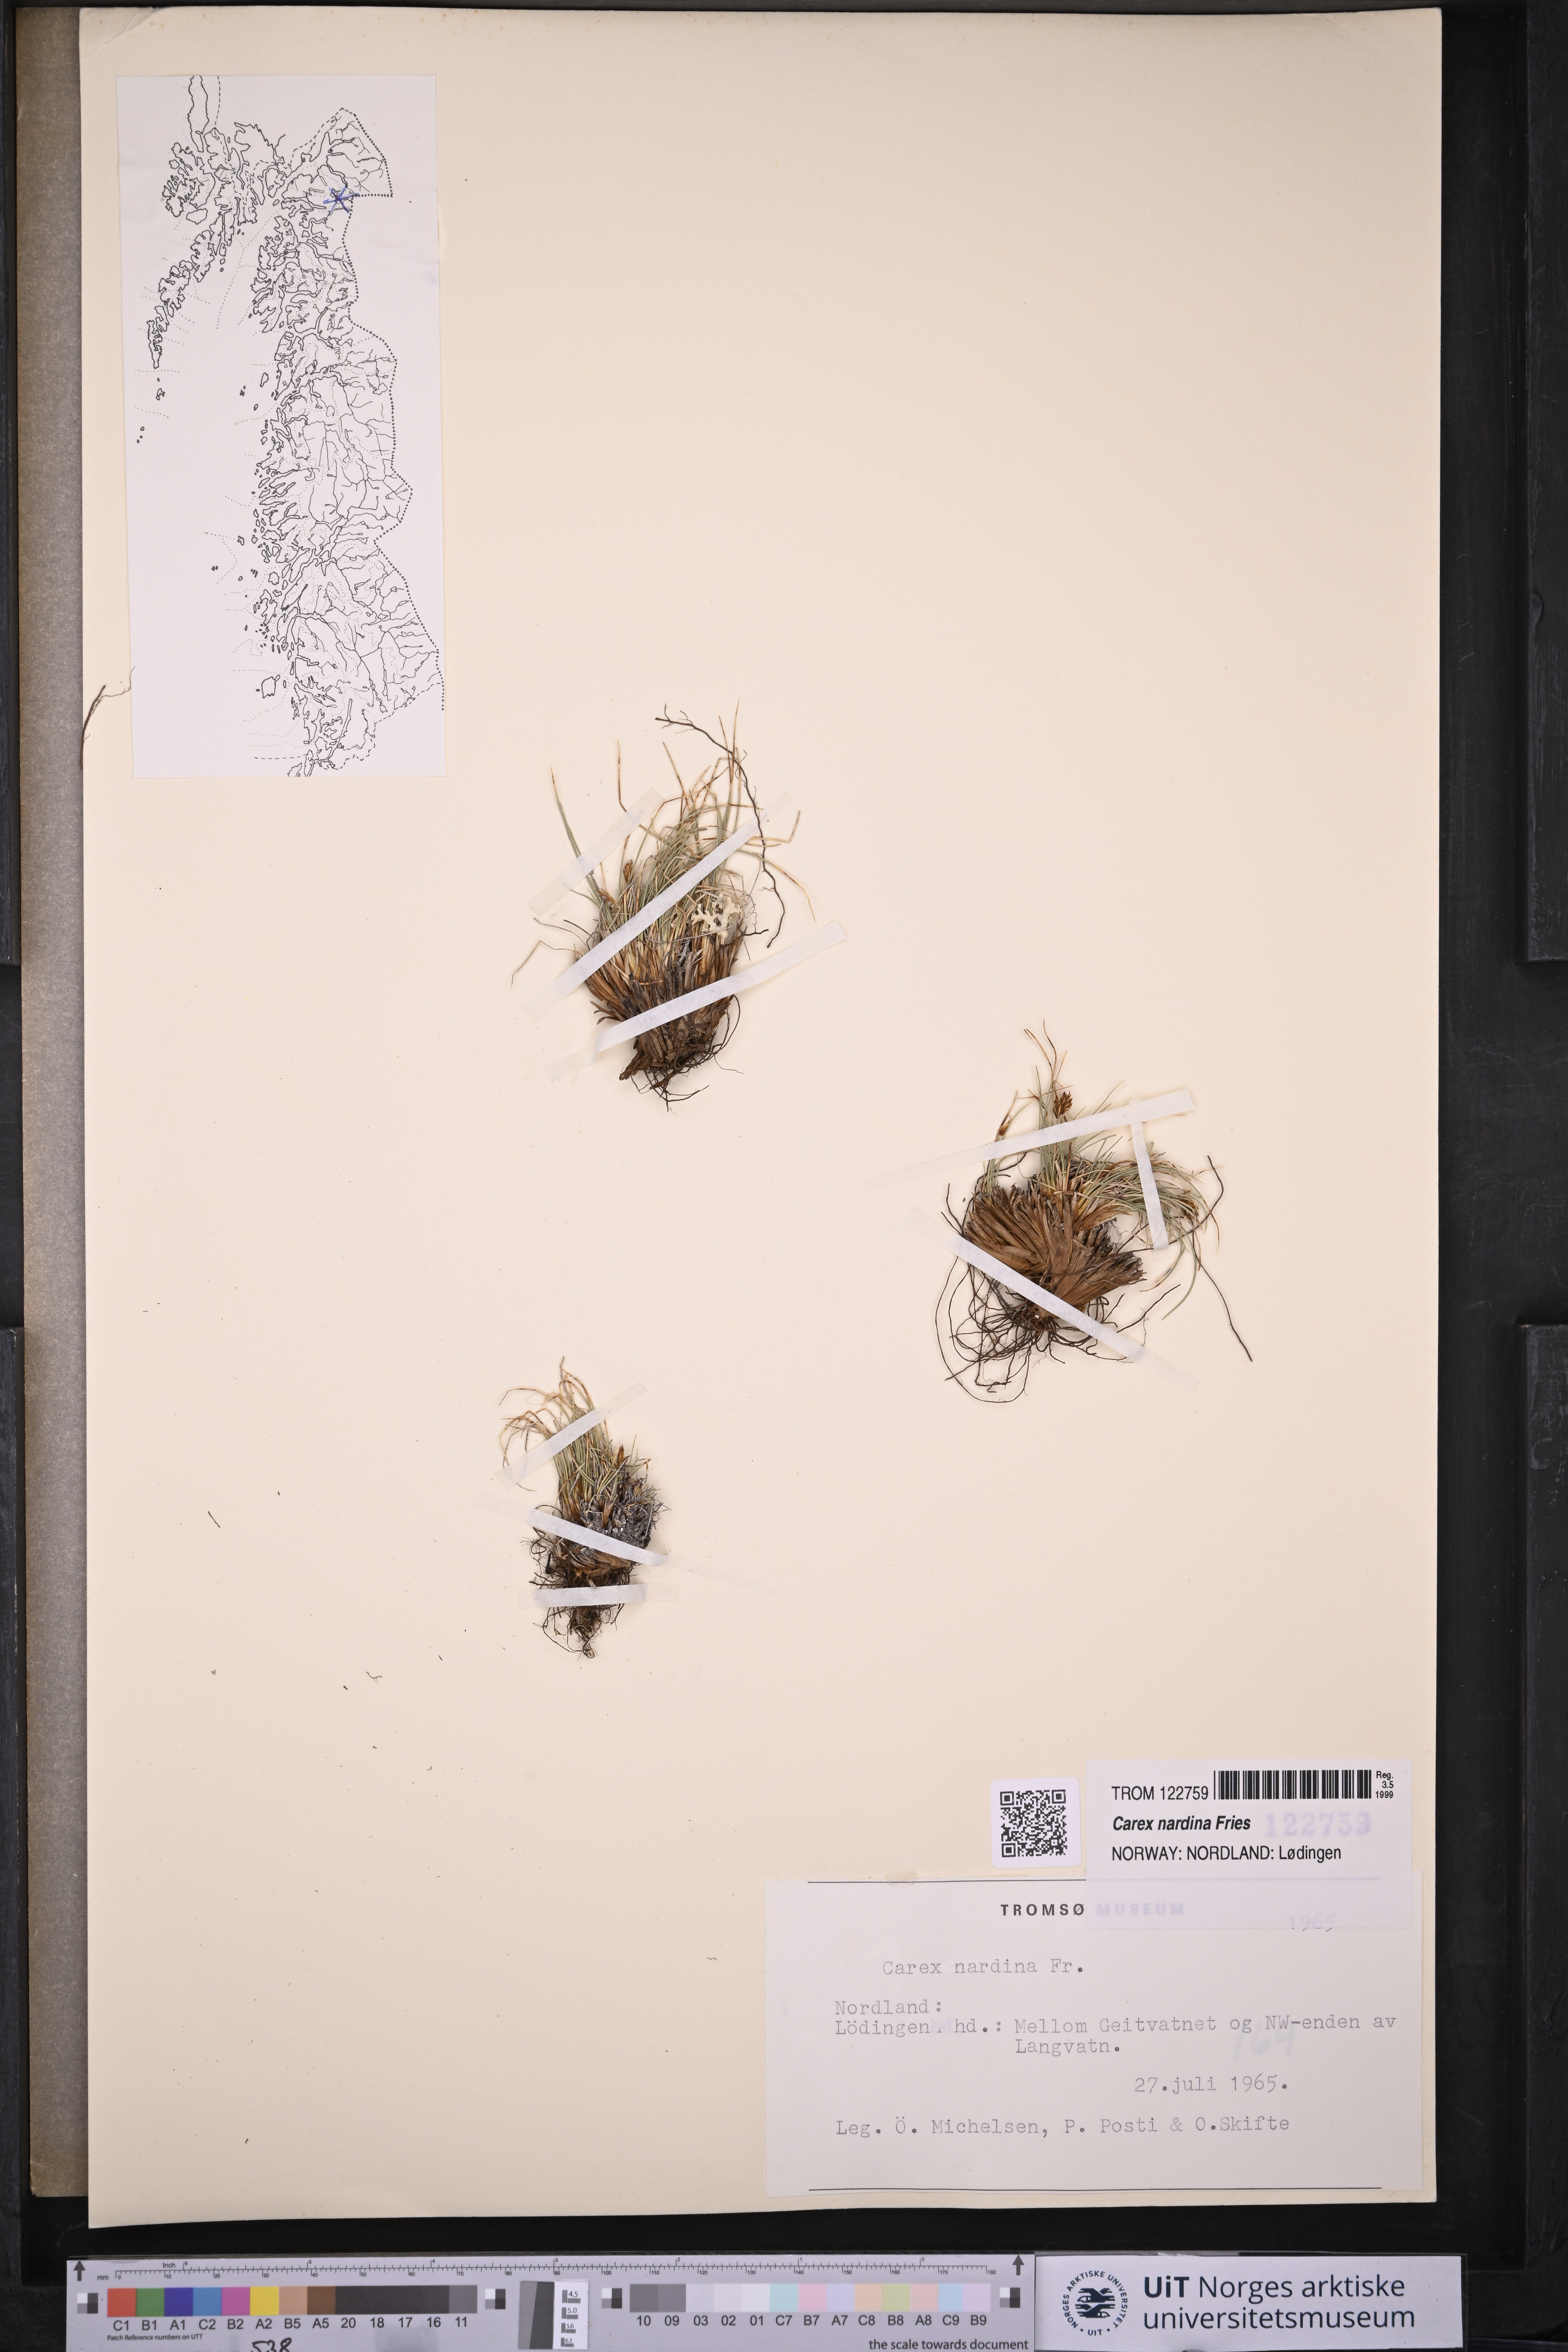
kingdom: Plantae
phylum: Tracheophyta
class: Liliopsida
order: Poales
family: Cyperaceae
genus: Carex
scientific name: Carex nardina
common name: Nard sedge
